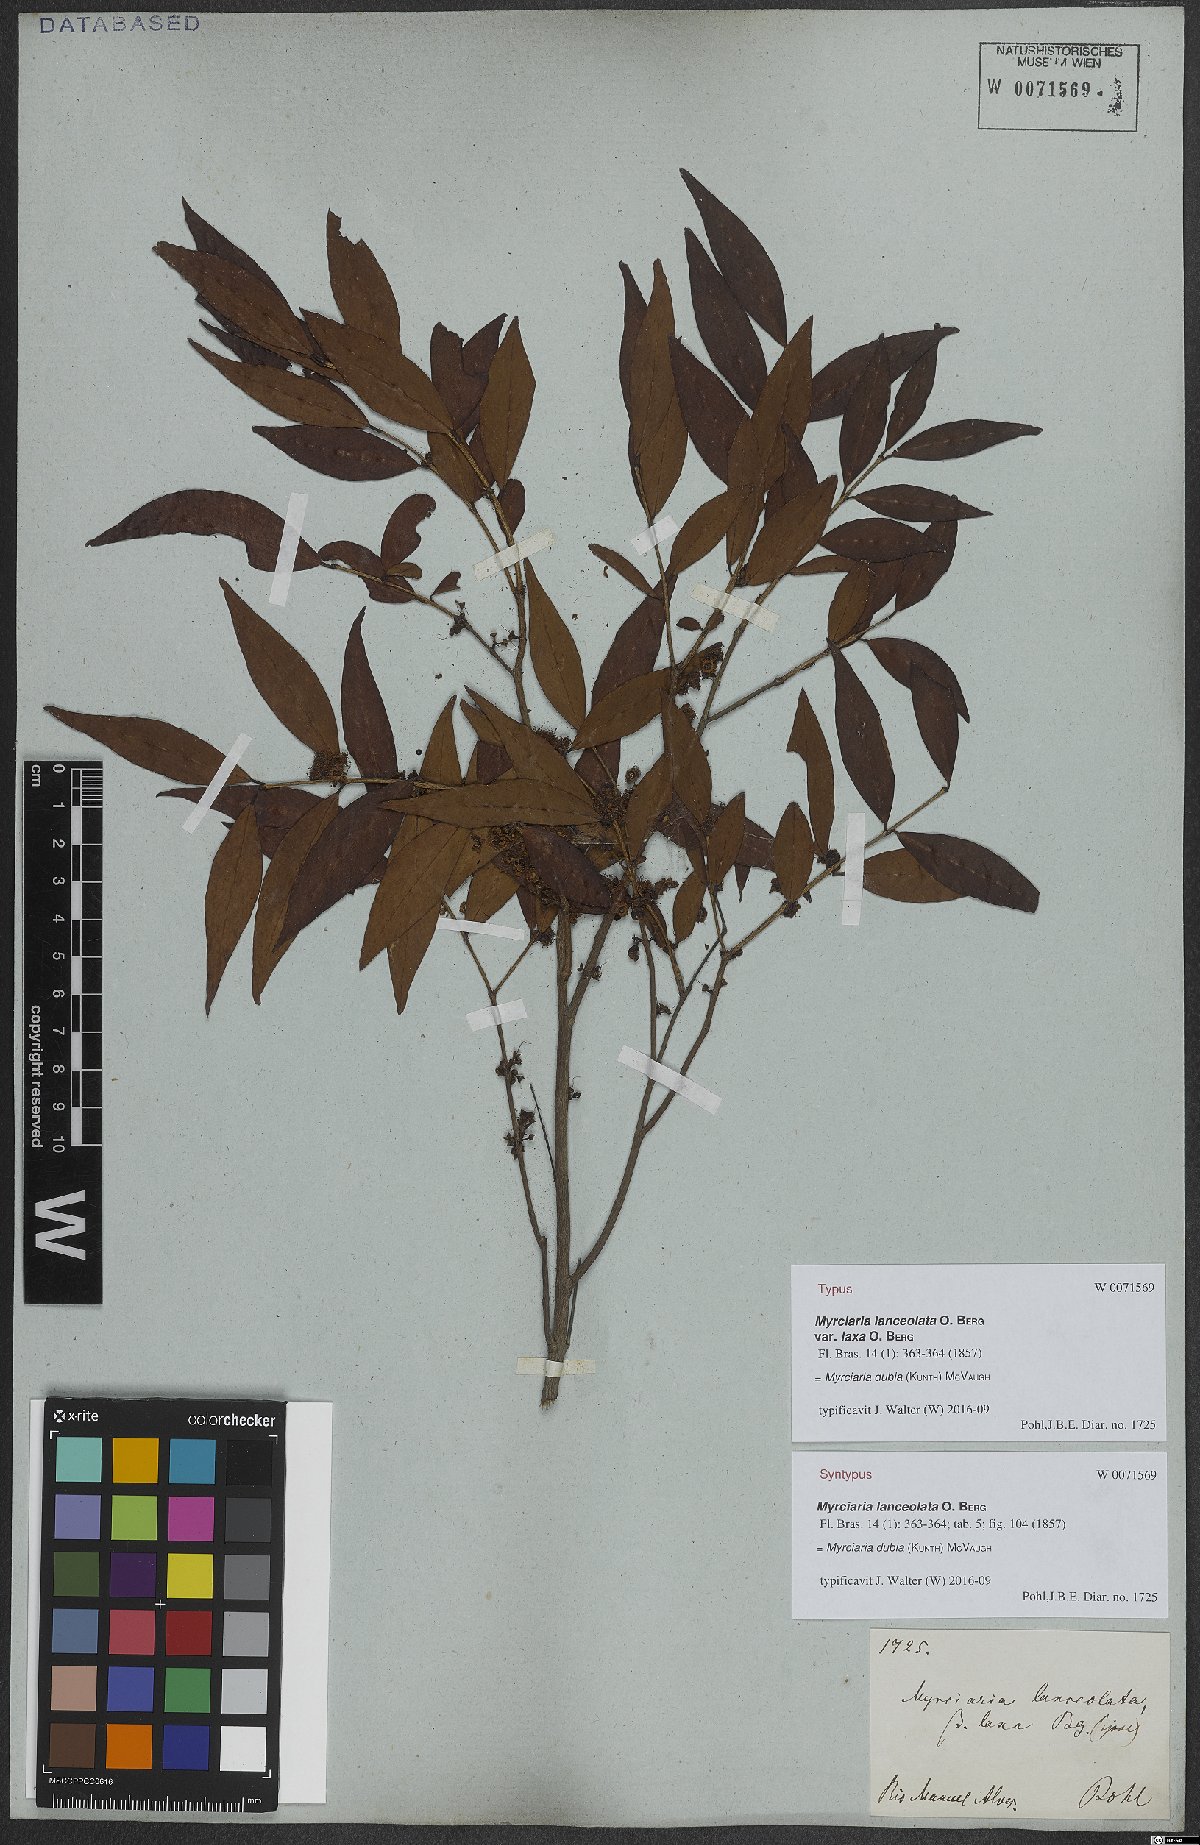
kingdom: Plantae
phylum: Tracheophyta
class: Magnoliopsida
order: Myrtales
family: Myrtaceae
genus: Myrciaria
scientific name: Myrciaria dubia
